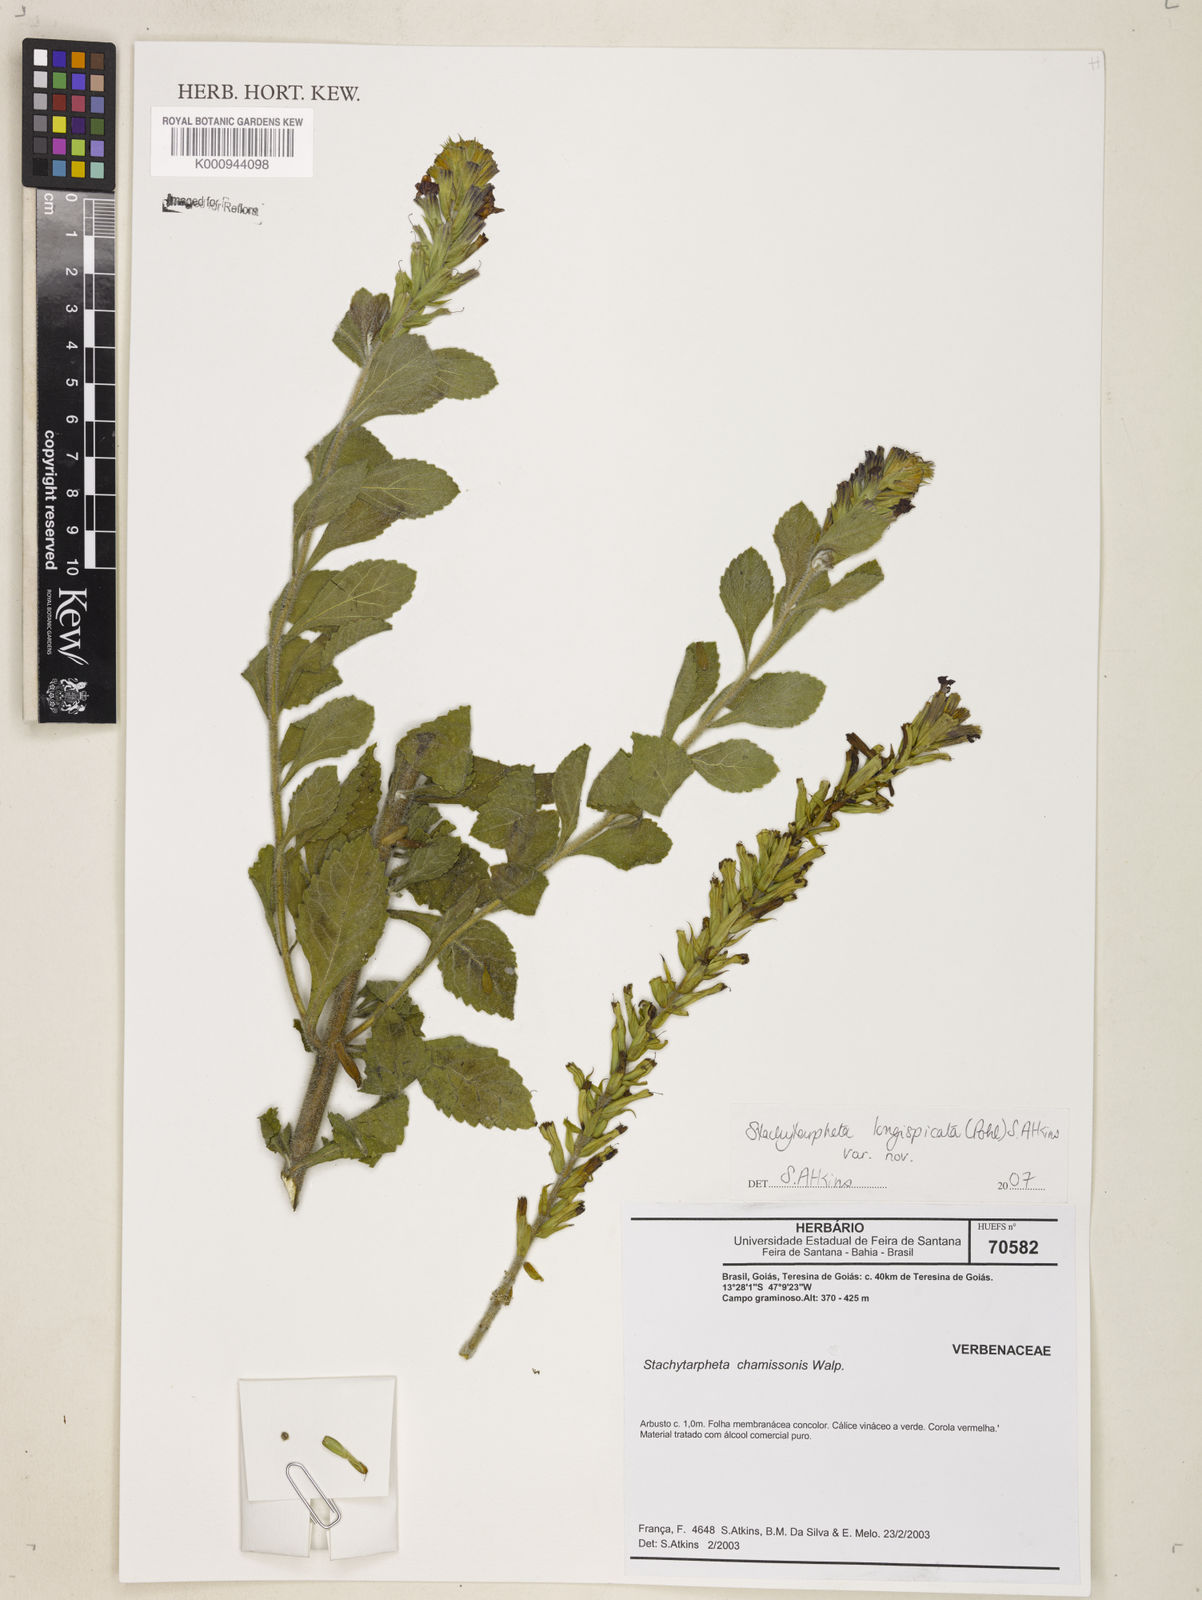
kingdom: Plantae
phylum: Tracheophyta
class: Magnoliopsida
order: Lamiales
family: Verbenaceae
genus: Stachytarpheta
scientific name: Stachytarpheta longispicata
